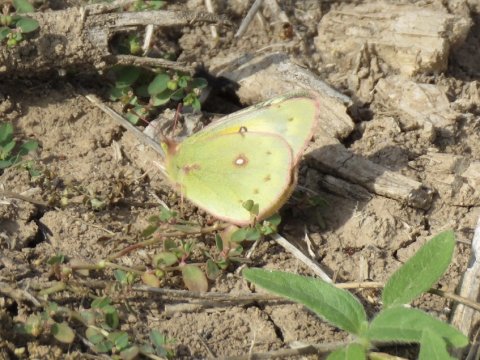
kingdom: Animalia
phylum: Arthropoda
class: Insecta
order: Lepidoptera
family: Pieridae
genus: Colias
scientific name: Colias eurytheme
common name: Orange Sulphur
